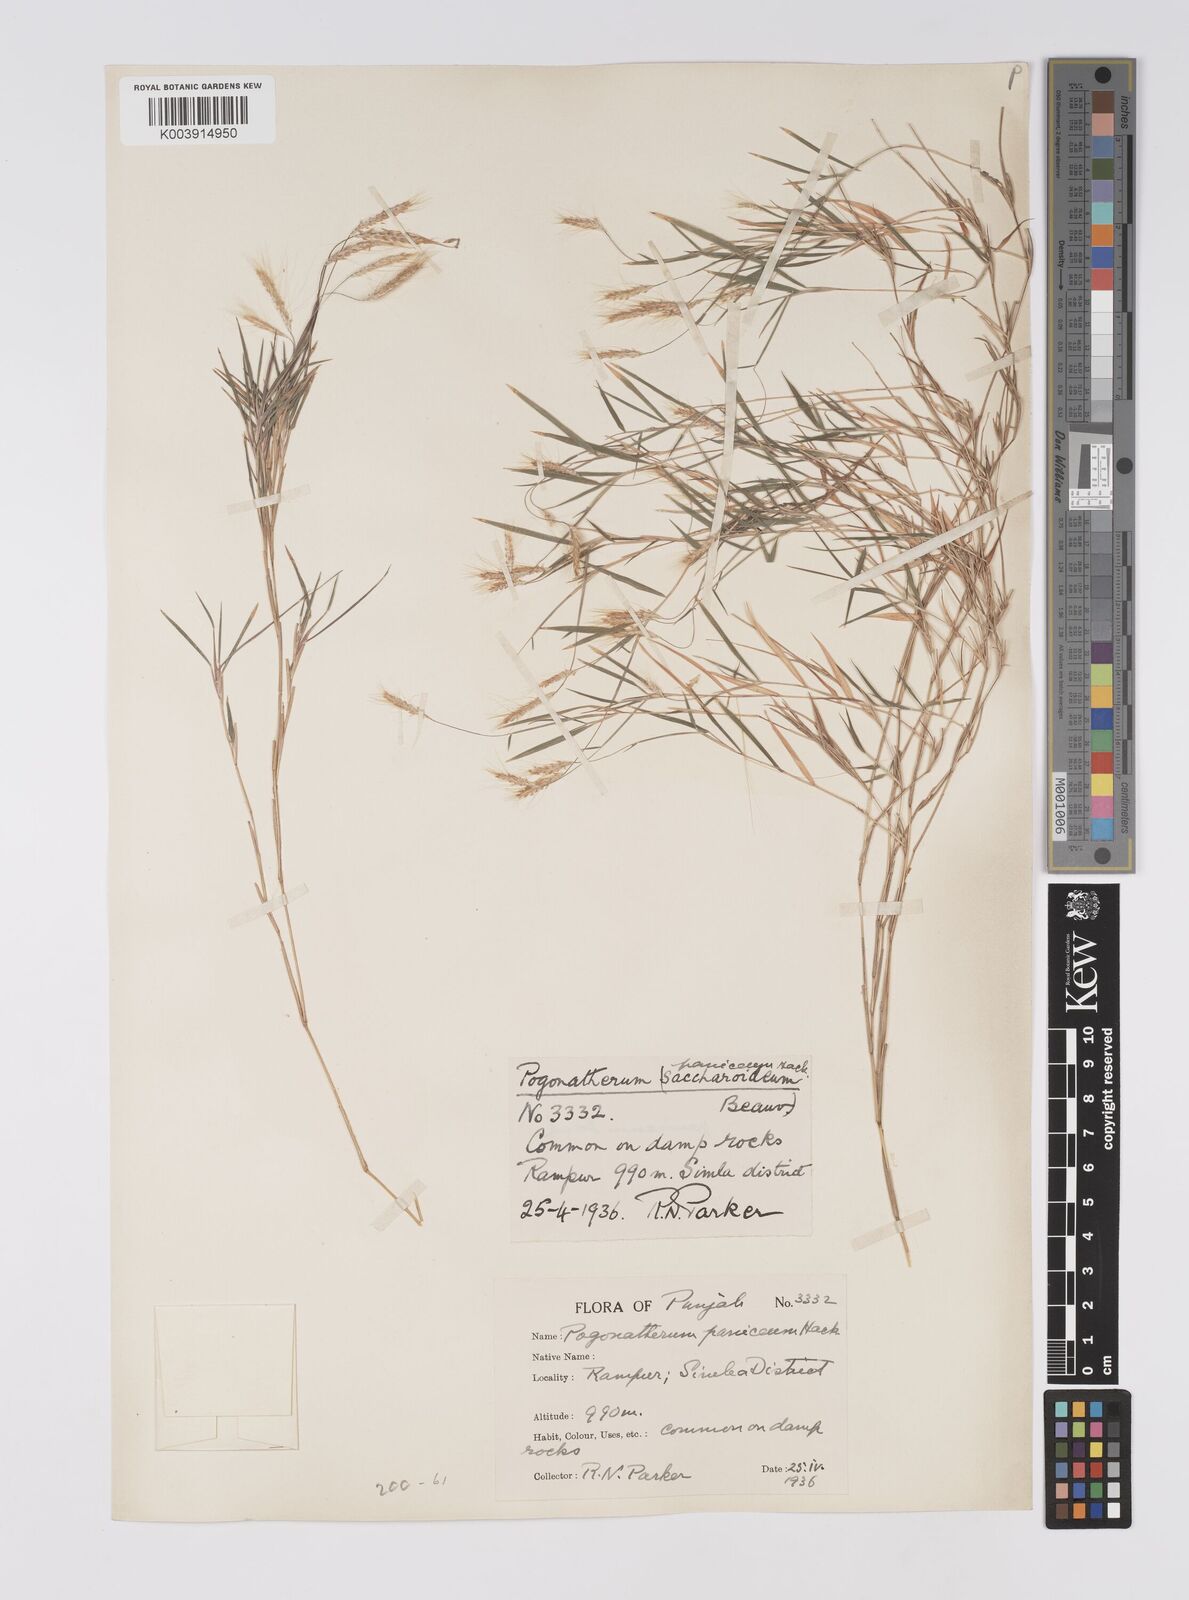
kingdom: Plantae
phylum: Tracheophyta
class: Liliopsida
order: Poales
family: Poaceae
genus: Pogonatherum
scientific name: Pogonatherum paniceum
